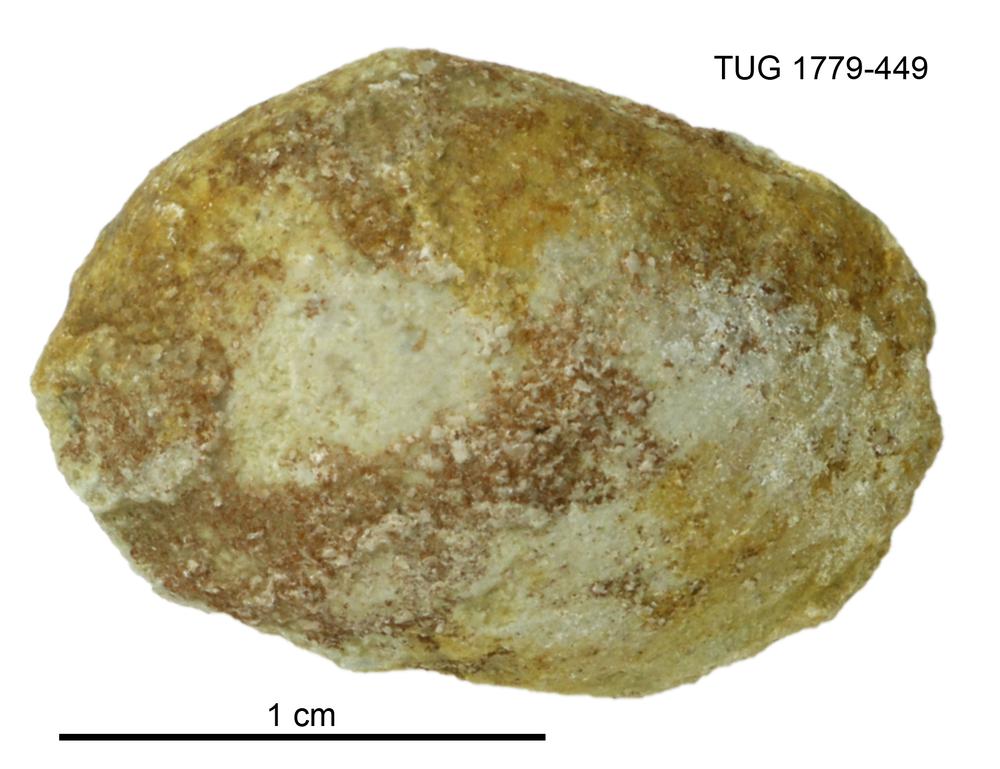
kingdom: Animalia
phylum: Mollusca
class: Bivalvia
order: Modiomorphida
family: Modiomorphidae
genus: Modiolopsis
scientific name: Modiolopsis
